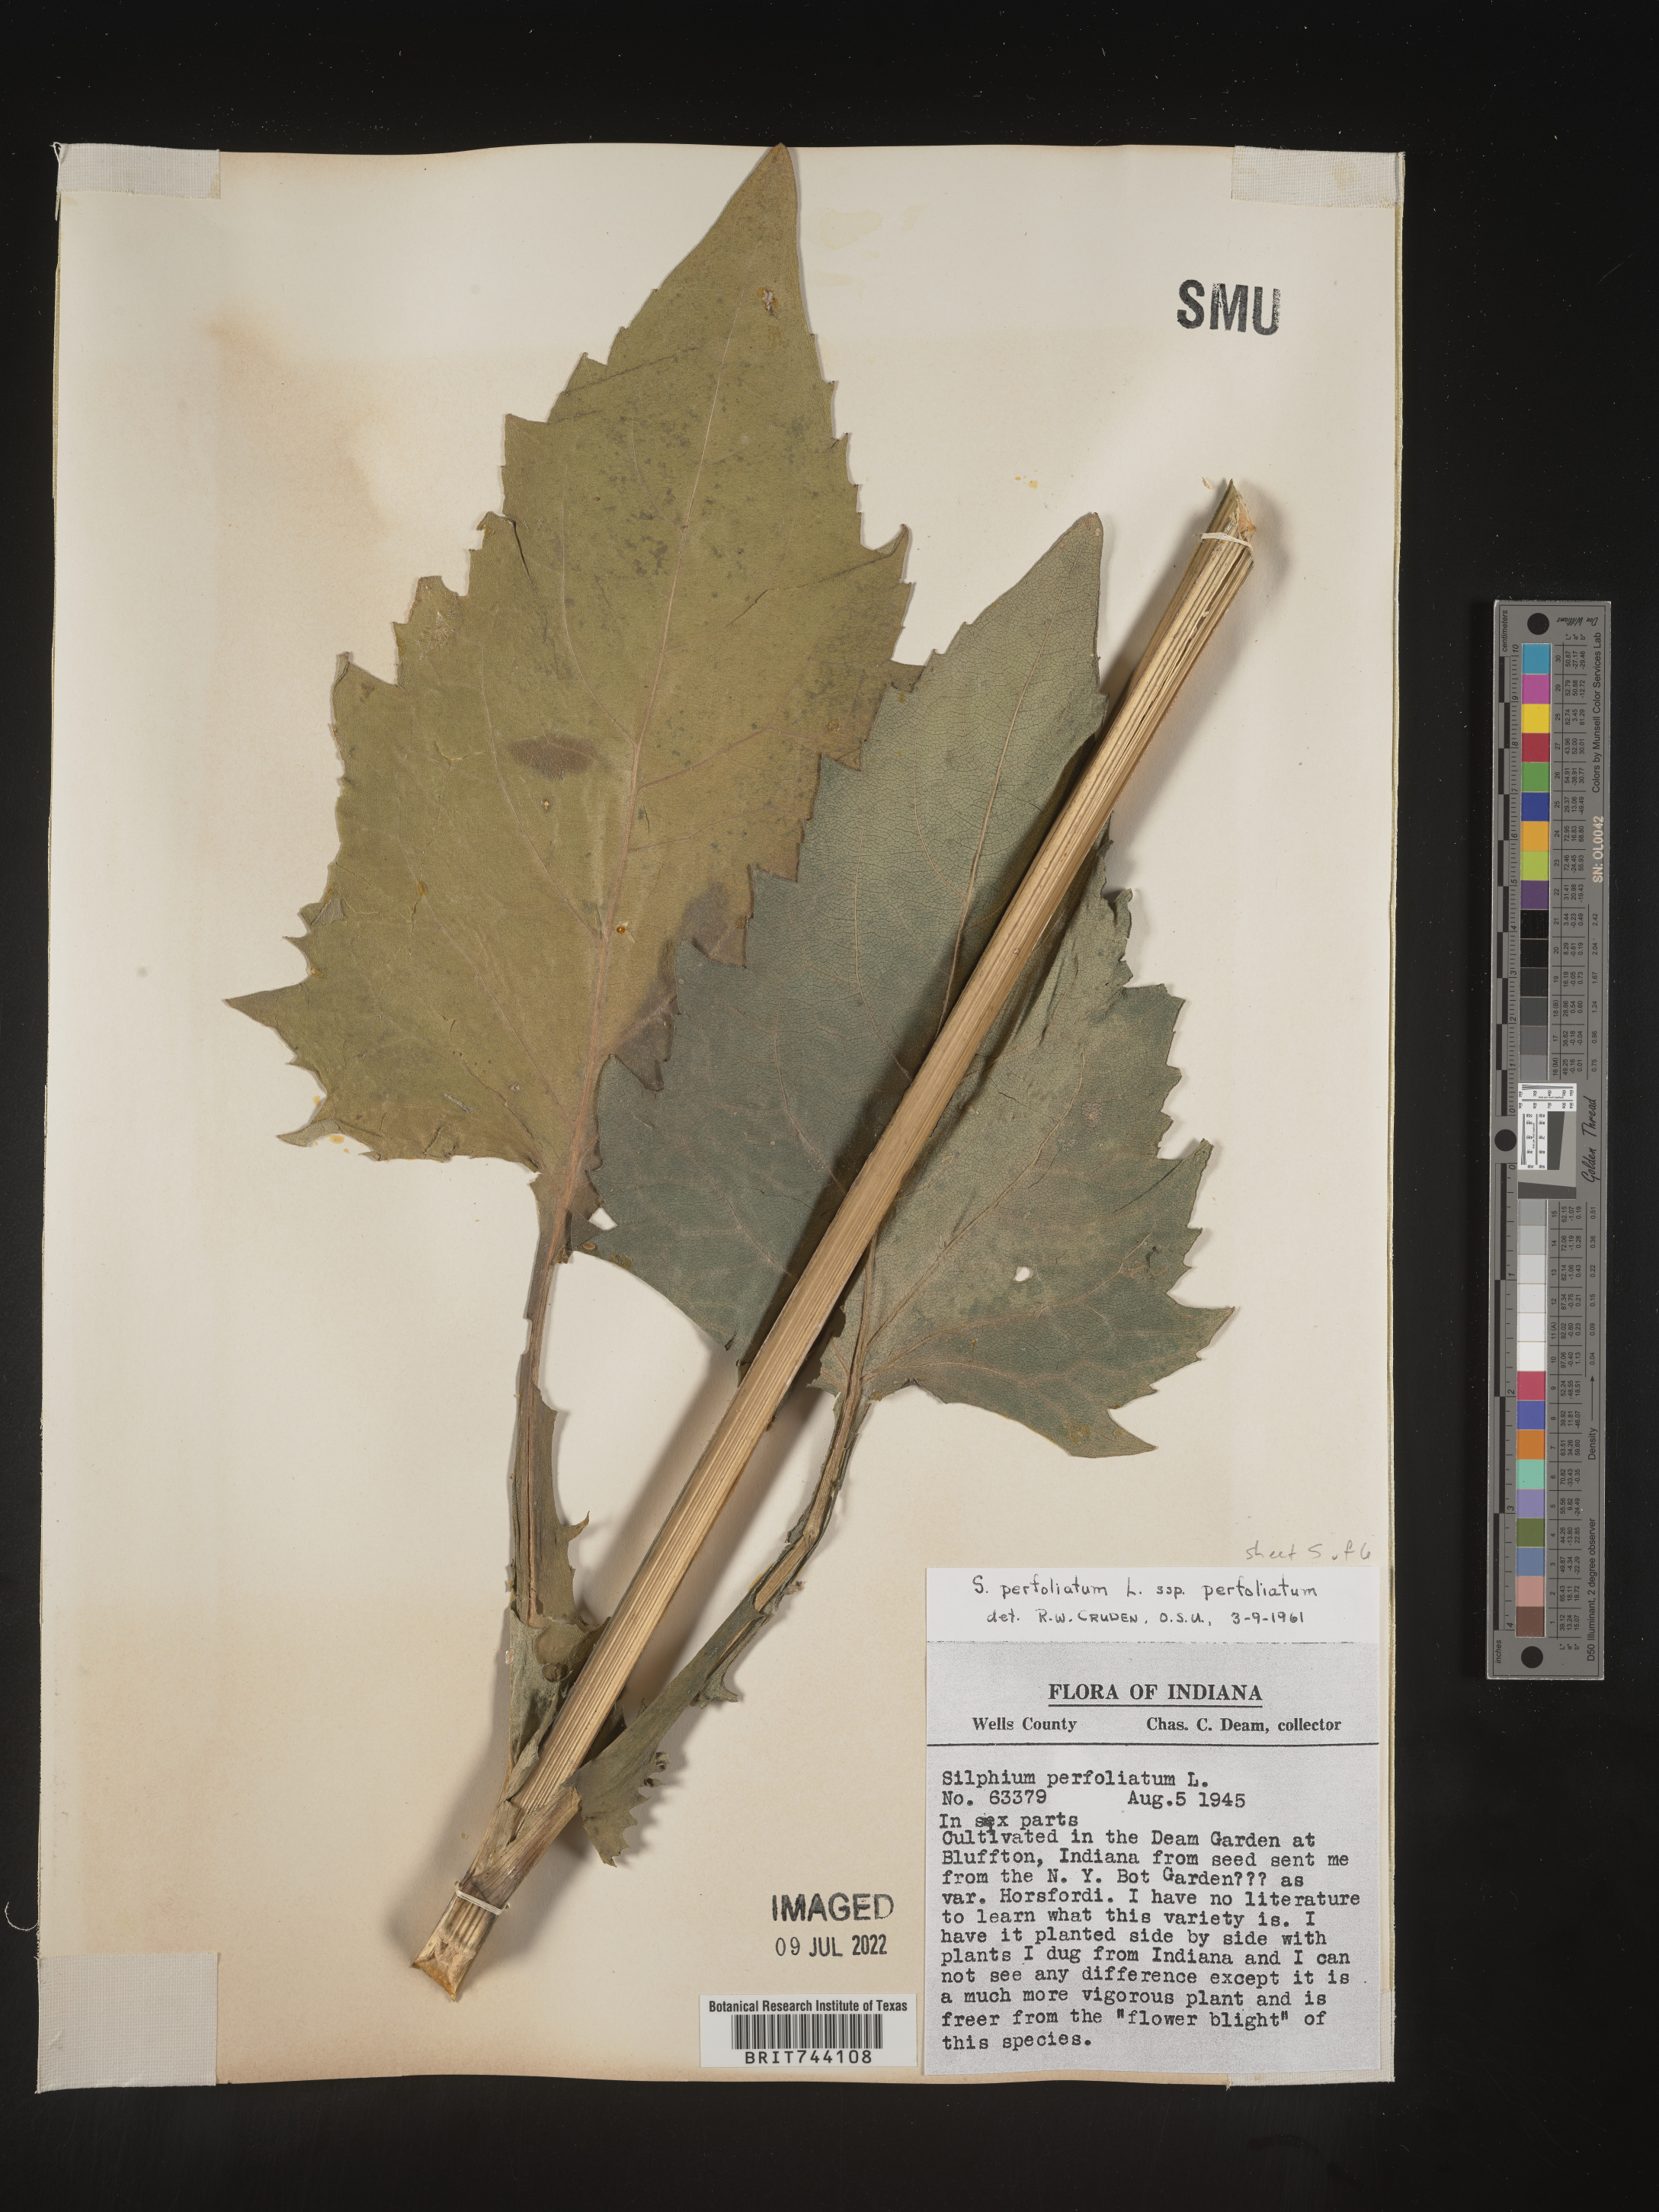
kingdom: Plantae
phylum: Tracheophyta
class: Magnoliopsida
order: Asterales
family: Asteraceae
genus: Silphium
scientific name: Silphium
